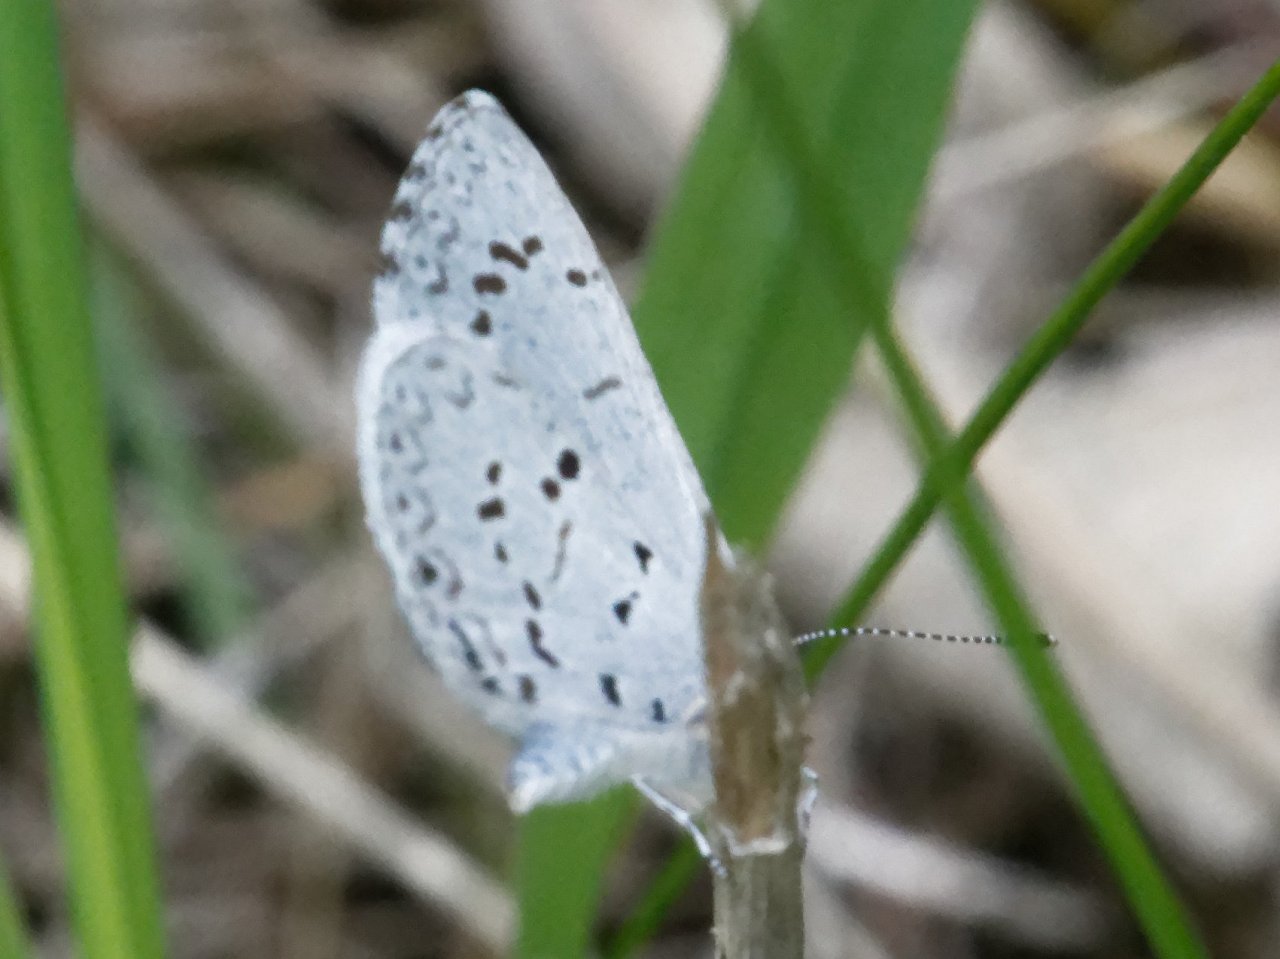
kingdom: Animalia
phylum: Arthropoda
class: Insecta
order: Lepidoptera
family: Lycaenidae
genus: Celastrina
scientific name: Celastrina
